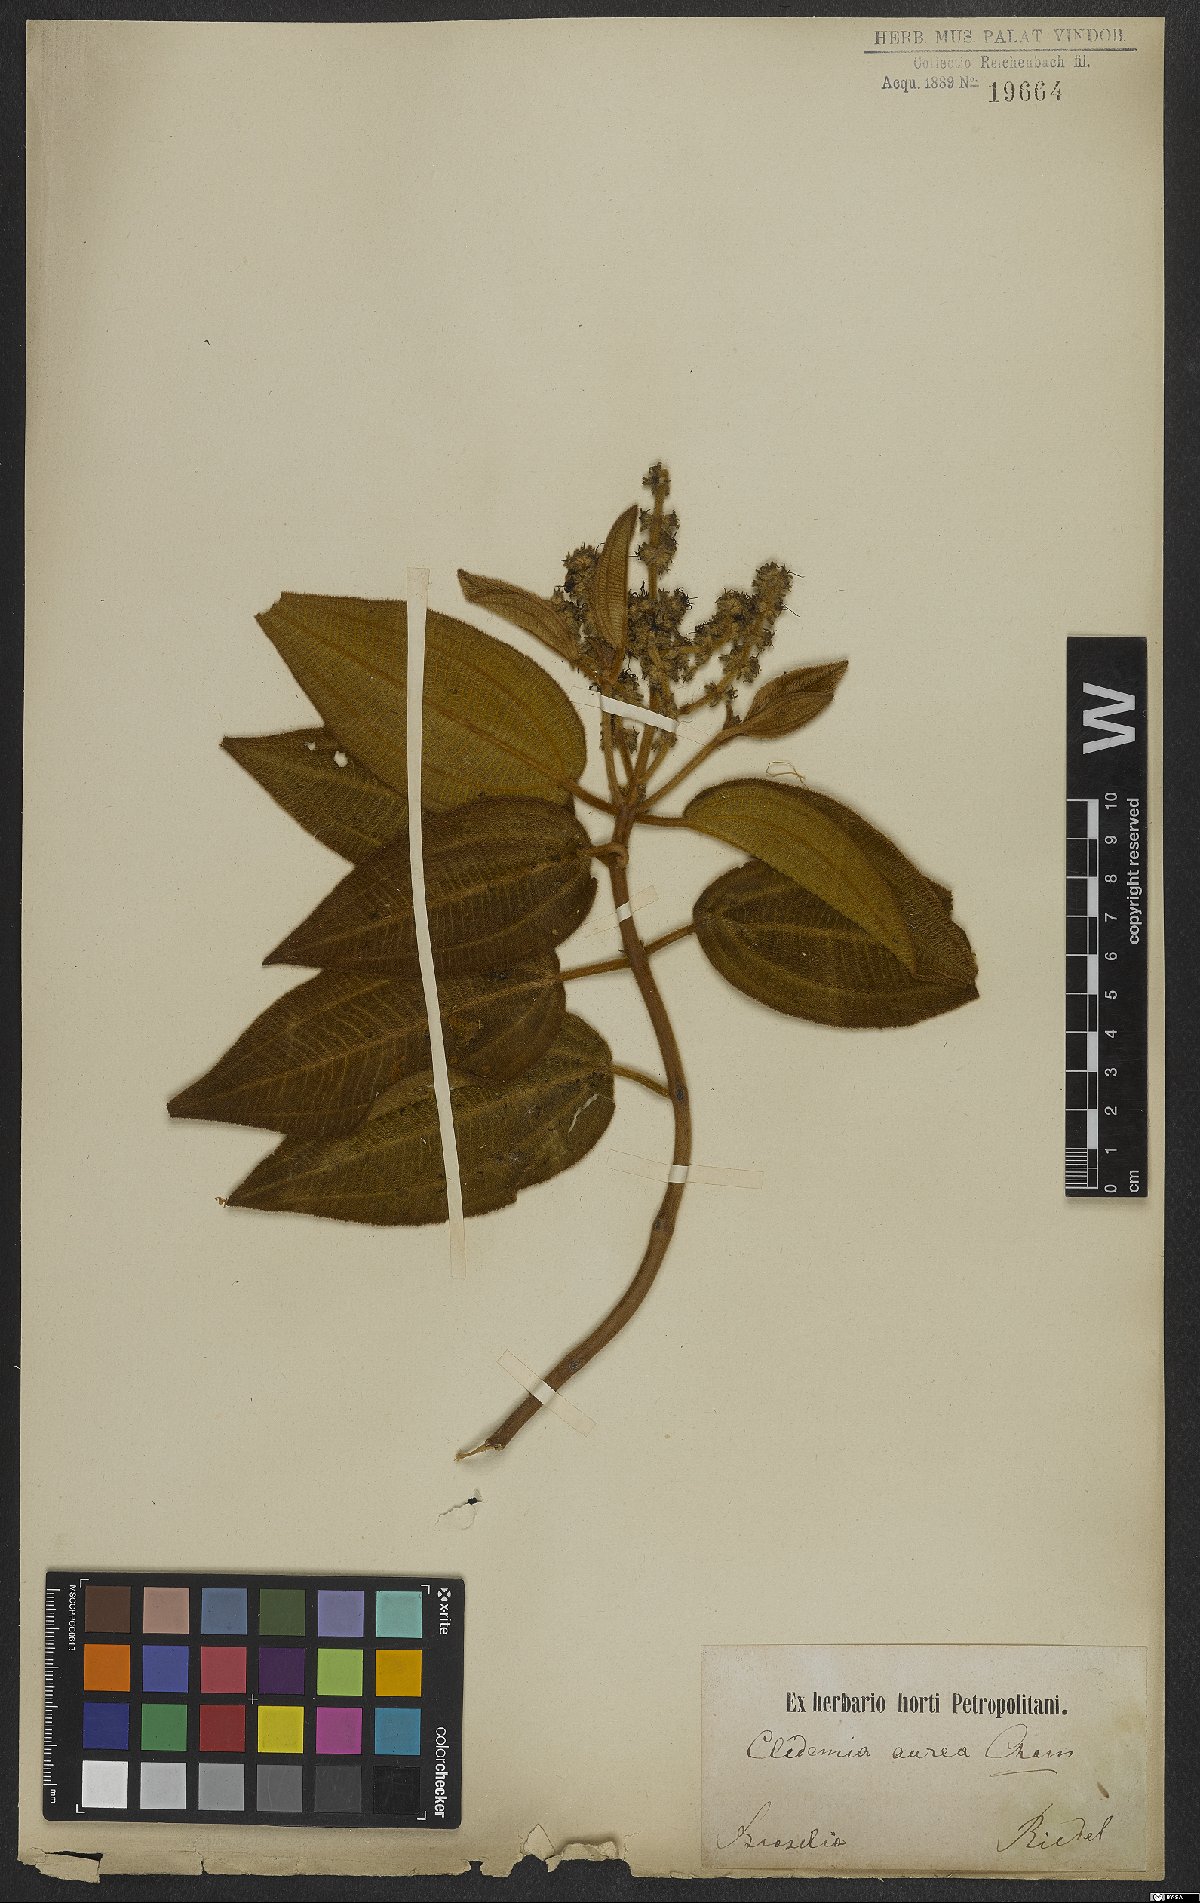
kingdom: Plantae
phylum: Tracheophyta
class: Magnoliopsida
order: Myrtales
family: Melastomataceae
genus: Miconia
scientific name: Miconia auricoma
